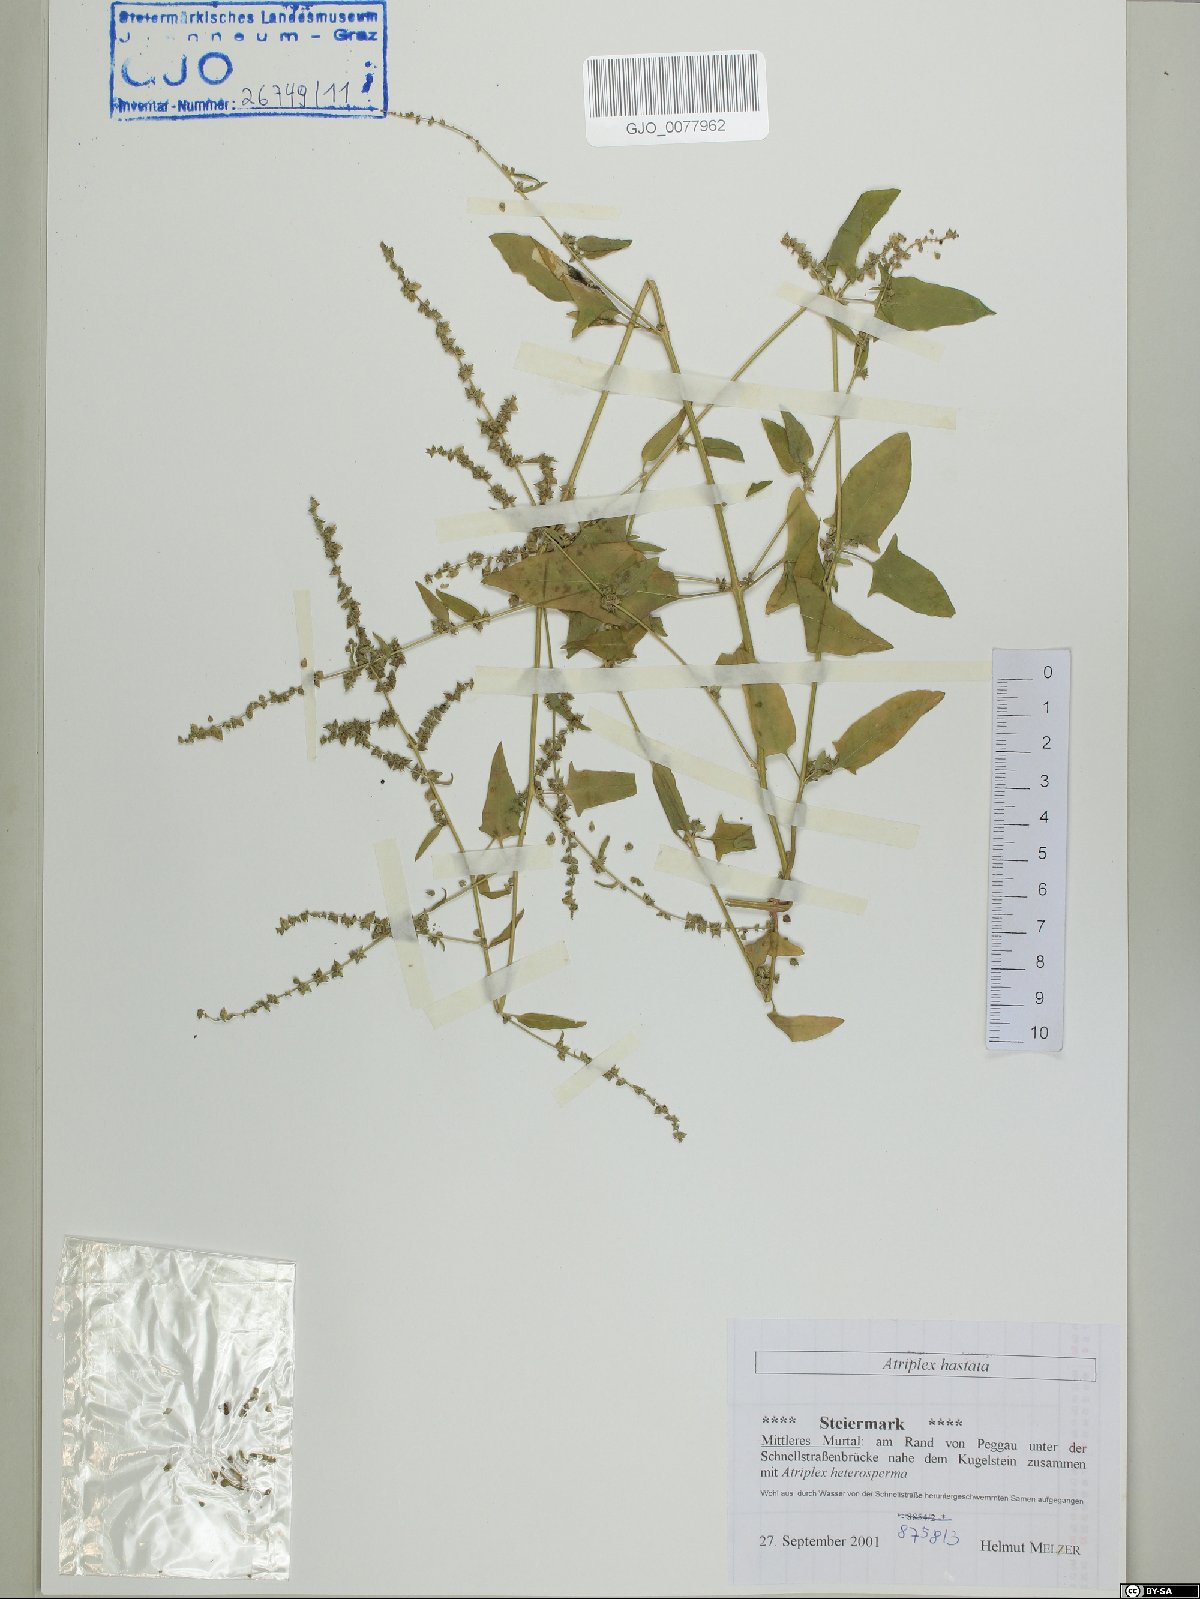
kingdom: Plantae
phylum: Tracheophyta
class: Magnoliopsida
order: Caryophyllales
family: Amaranthaceae
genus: Atriplex
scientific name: Atriplex calotheca
